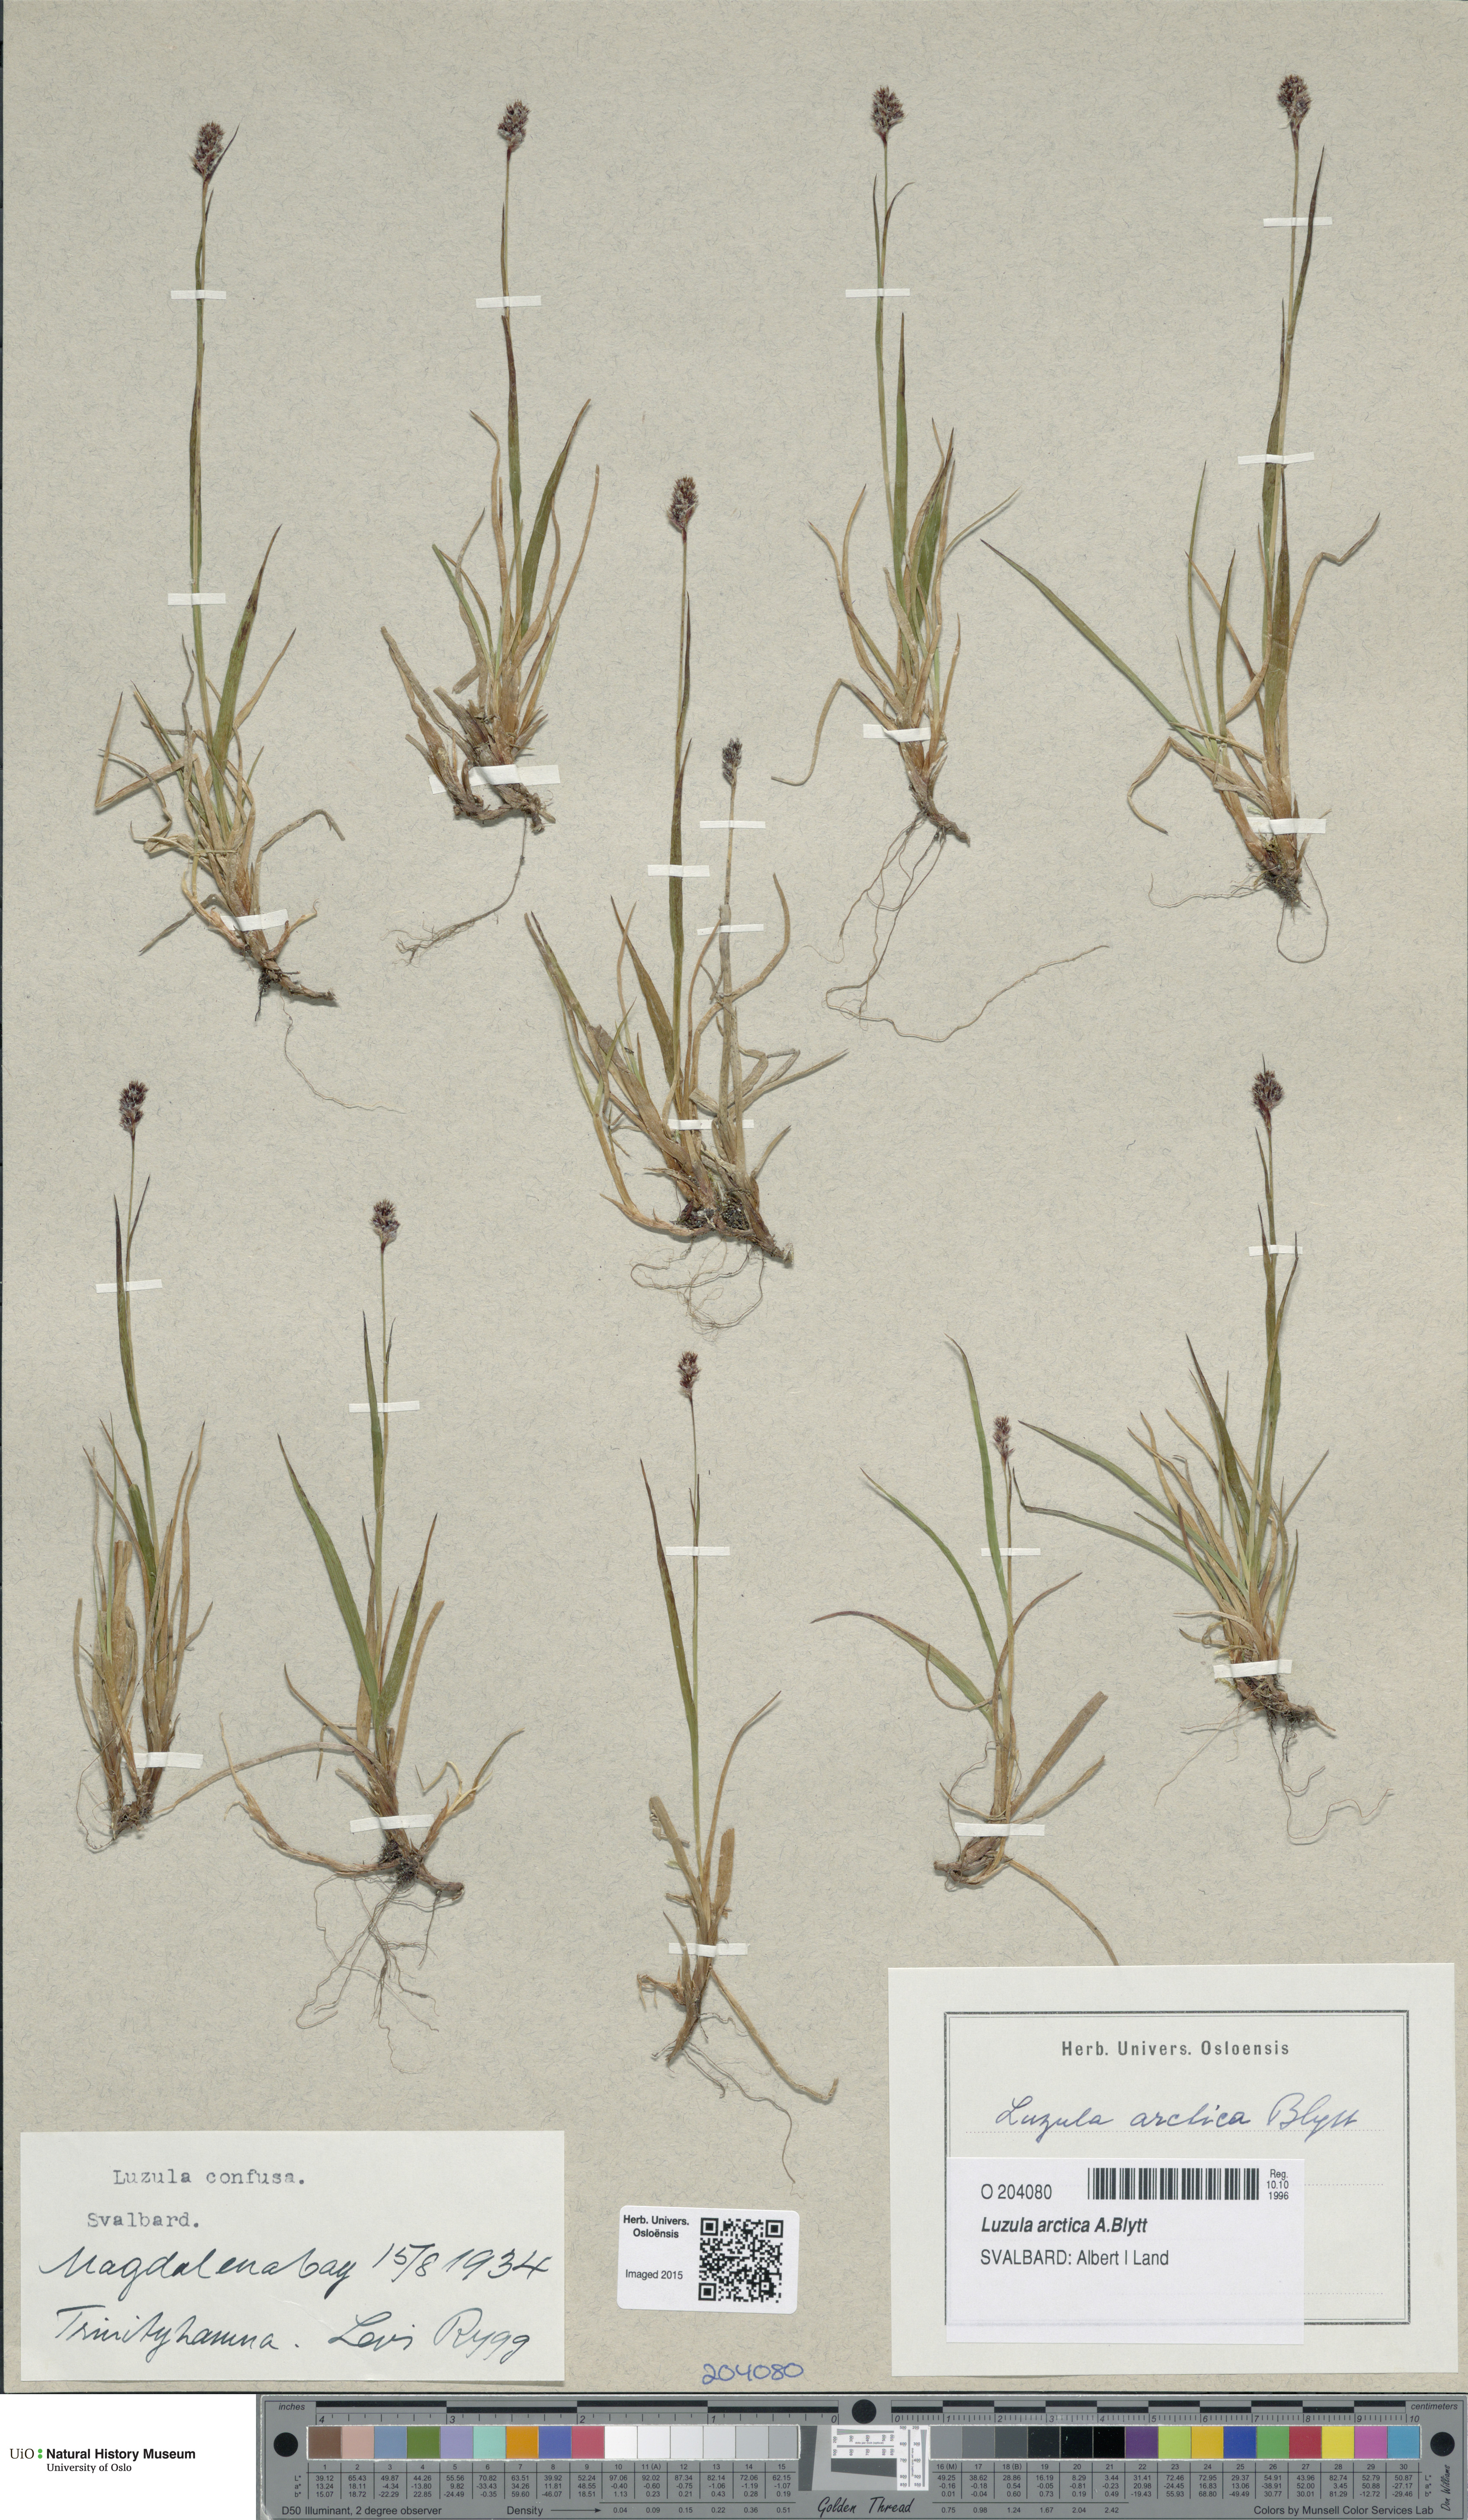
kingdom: Plantae
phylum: Tracheophyta
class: Liliopsida
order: Poales
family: Juncaceae
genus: Luzula
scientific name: Luzula nivalis
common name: Arctic woodrush
